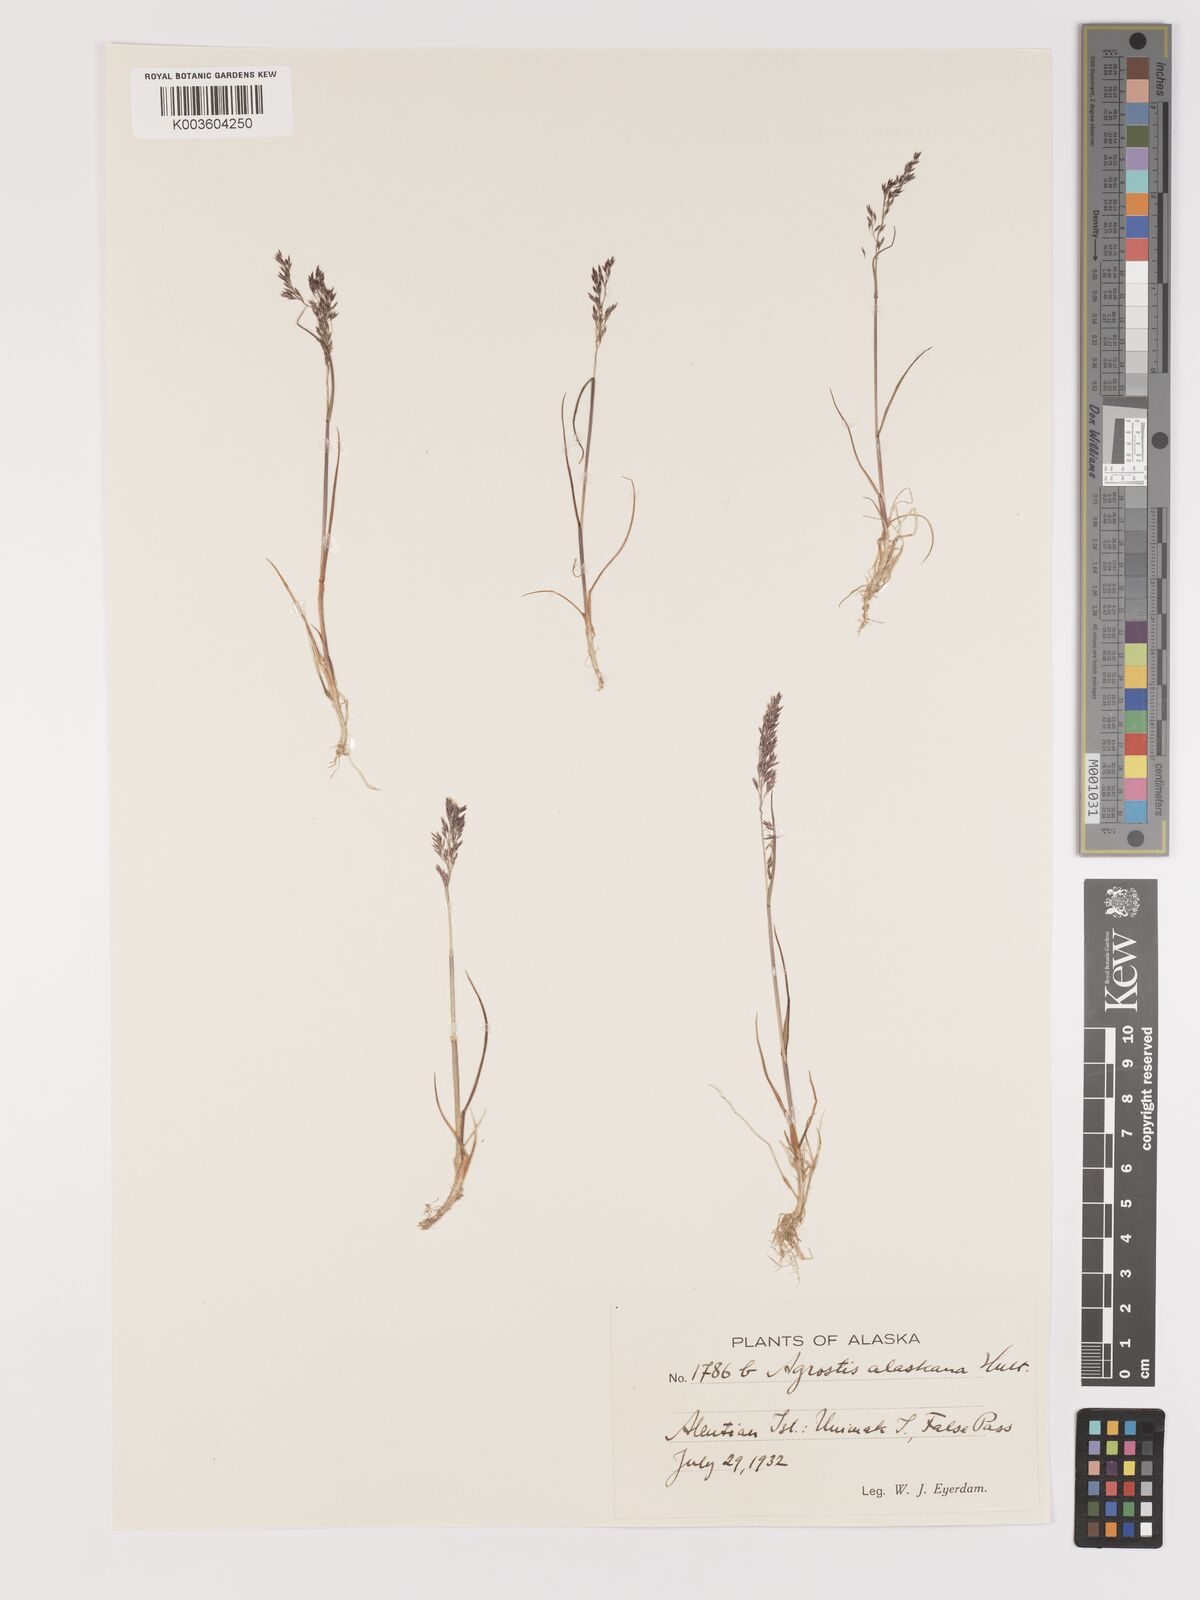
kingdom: Plantae
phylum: Tracheophyta
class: Liliopsida
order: Poales
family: Poaceae
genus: Agrostis
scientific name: Agrostis exarata
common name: Spike bent
